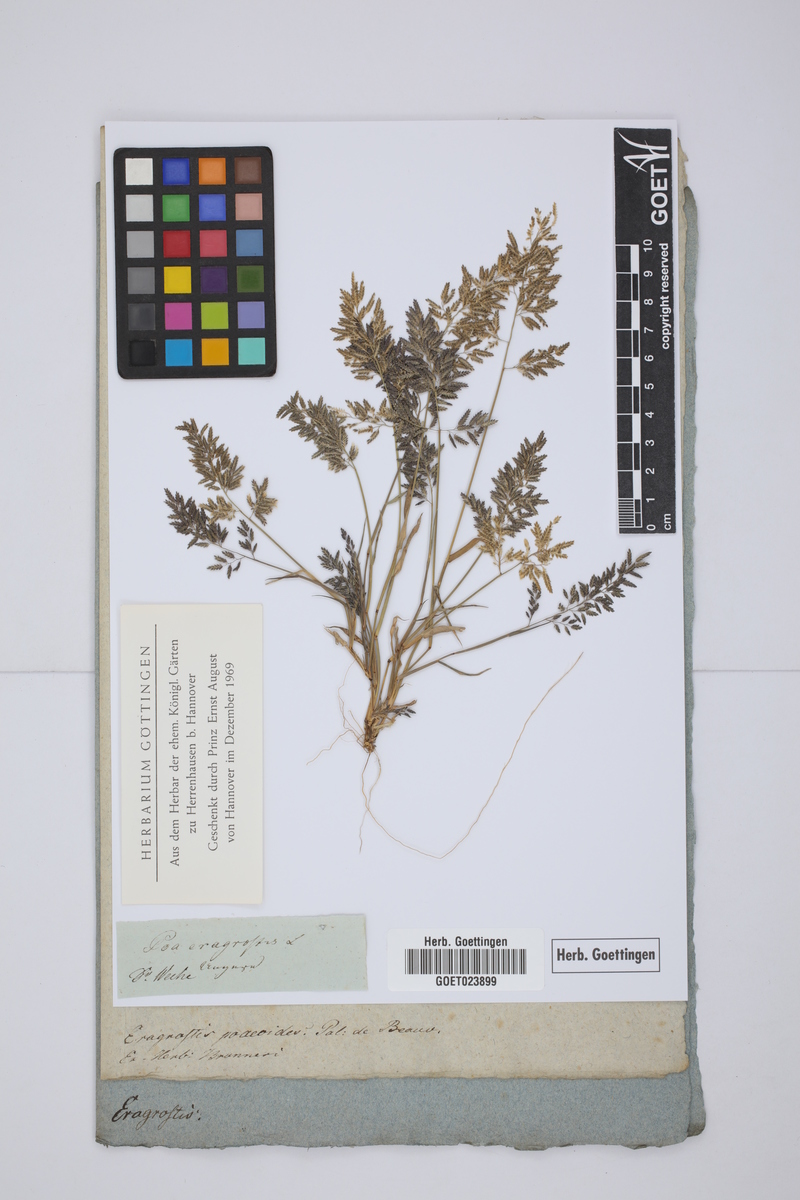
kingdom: Plantae
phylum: Tracheophyta
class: Liliopsida
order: Poales
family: Poaceae
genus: Eragrostis
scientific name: Eragrostis minor
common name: Small love-grass
